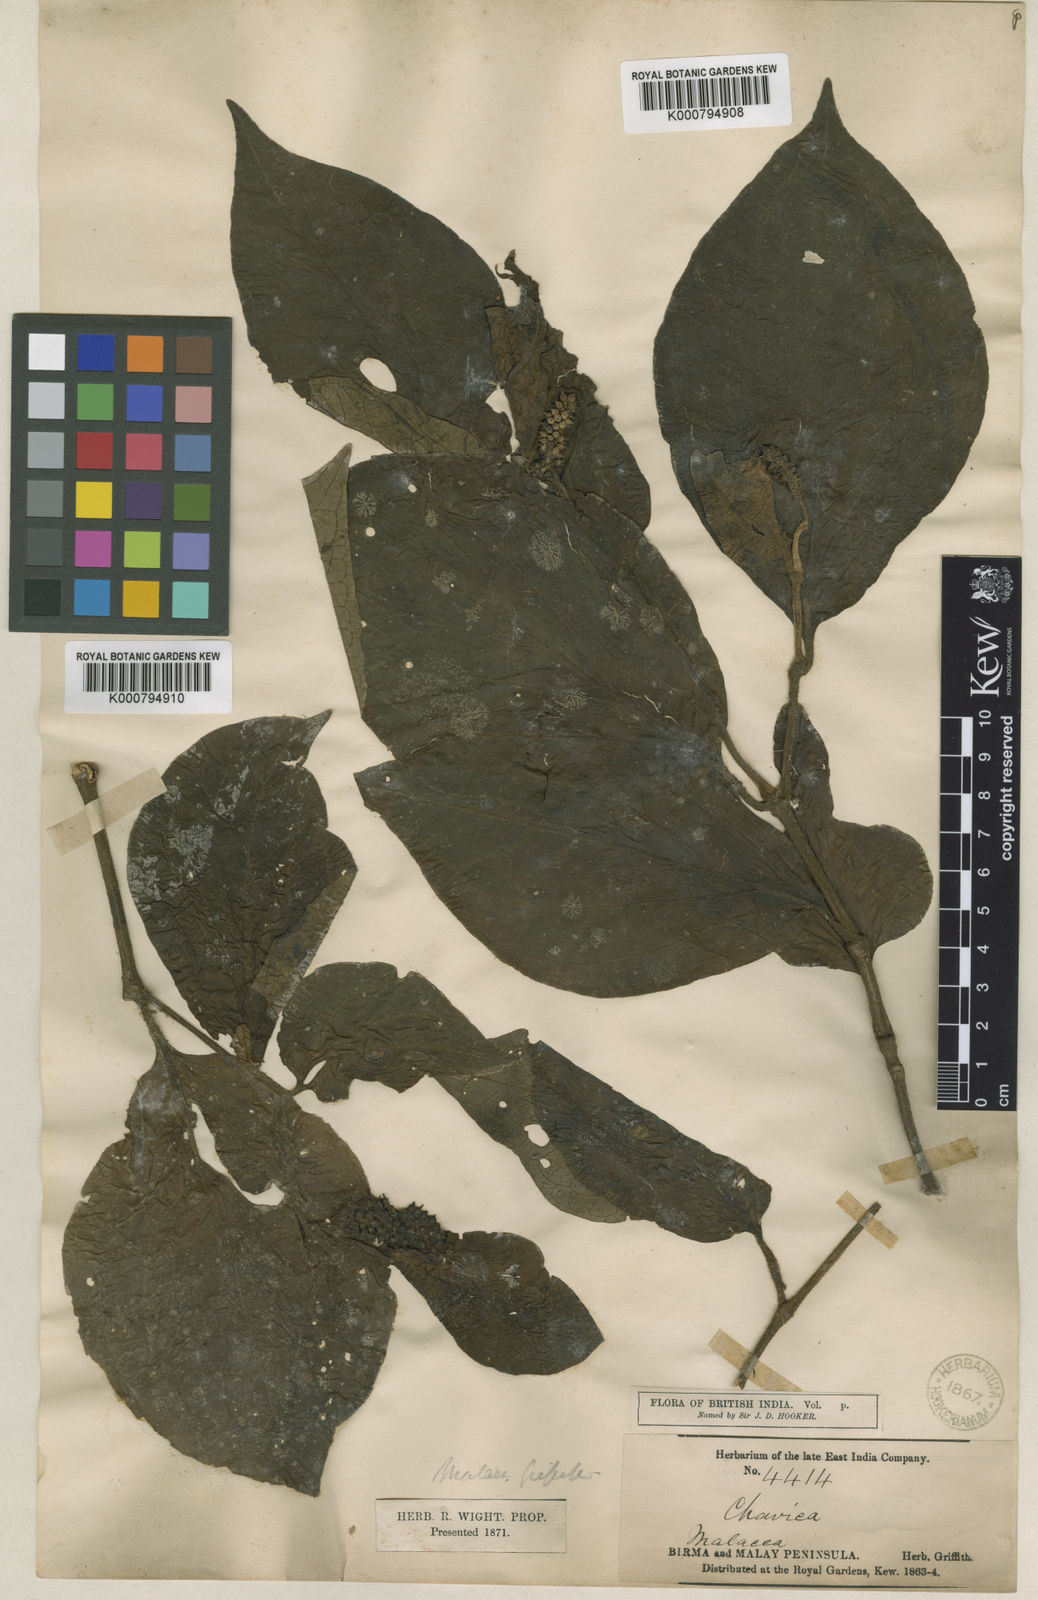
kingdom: Plantae
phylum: Tracheophyta
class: Magnoliopsida
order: Piperales
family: Piperaceae
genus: Piper
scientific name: Piper rostratum
